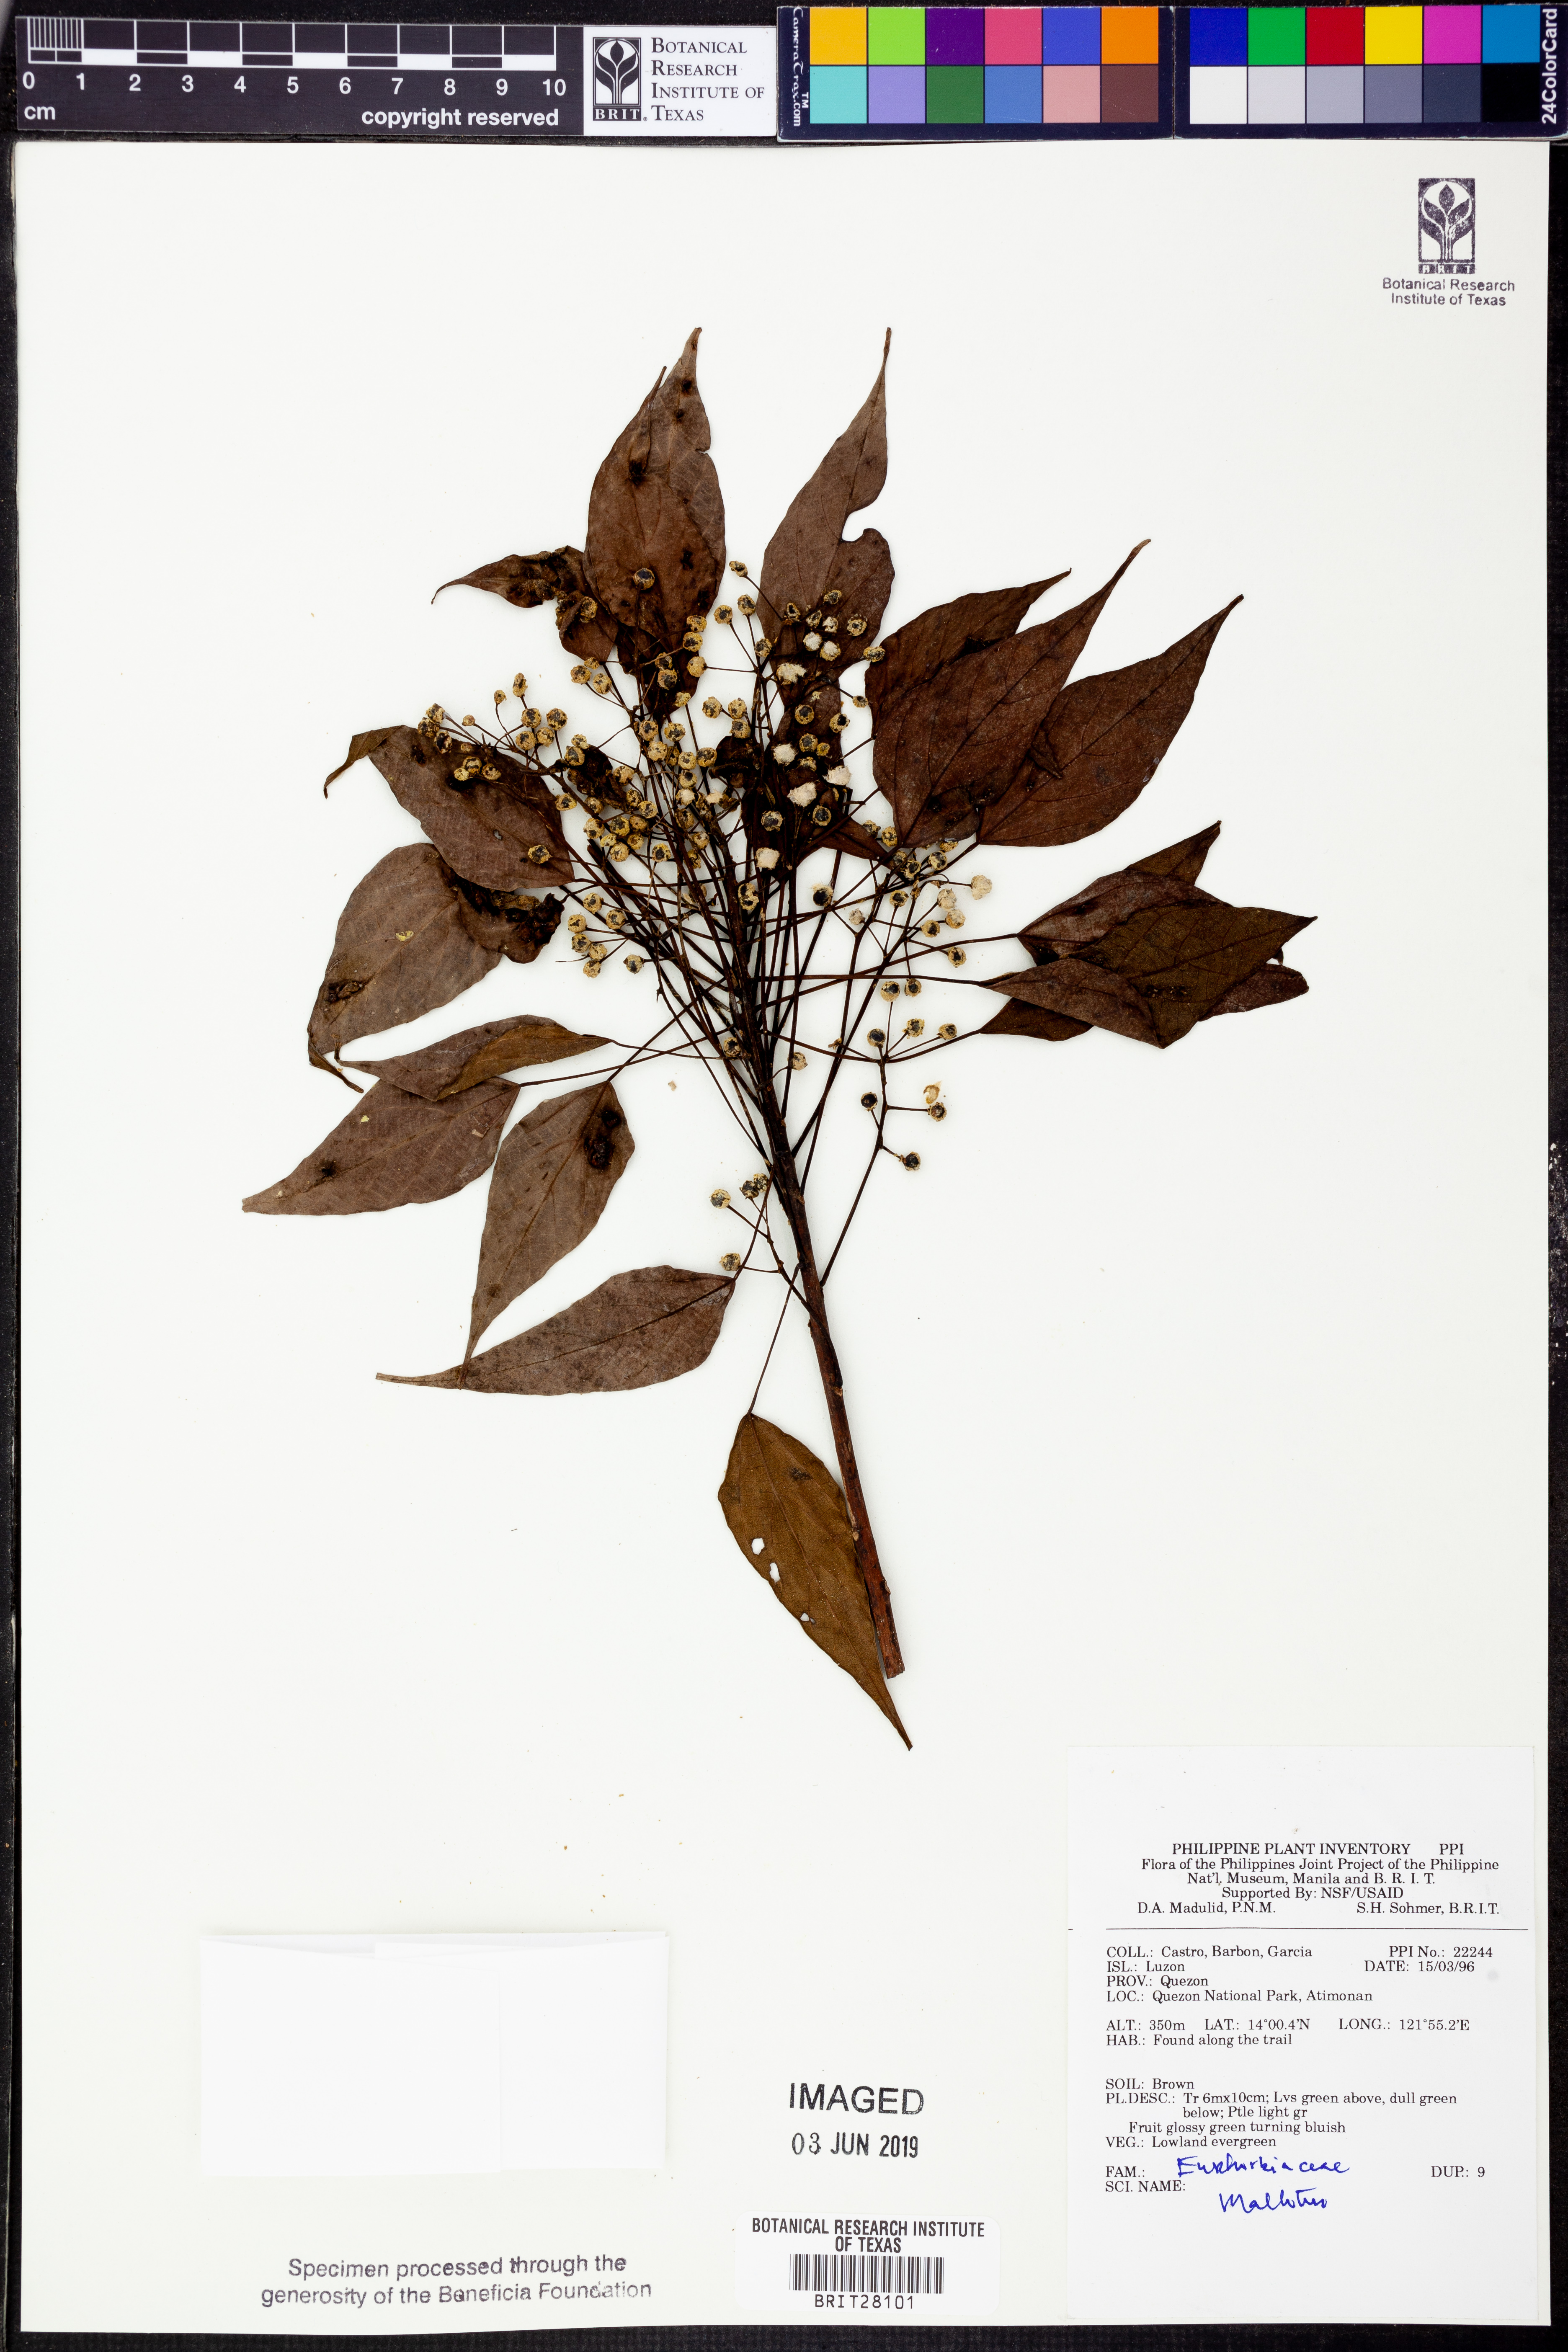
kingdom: Plantae
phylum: Tracheophyta
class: Magnoliopsida
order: Malpighiales
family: Euphorbiaceae
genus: Mallotus
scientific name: Mallotus
